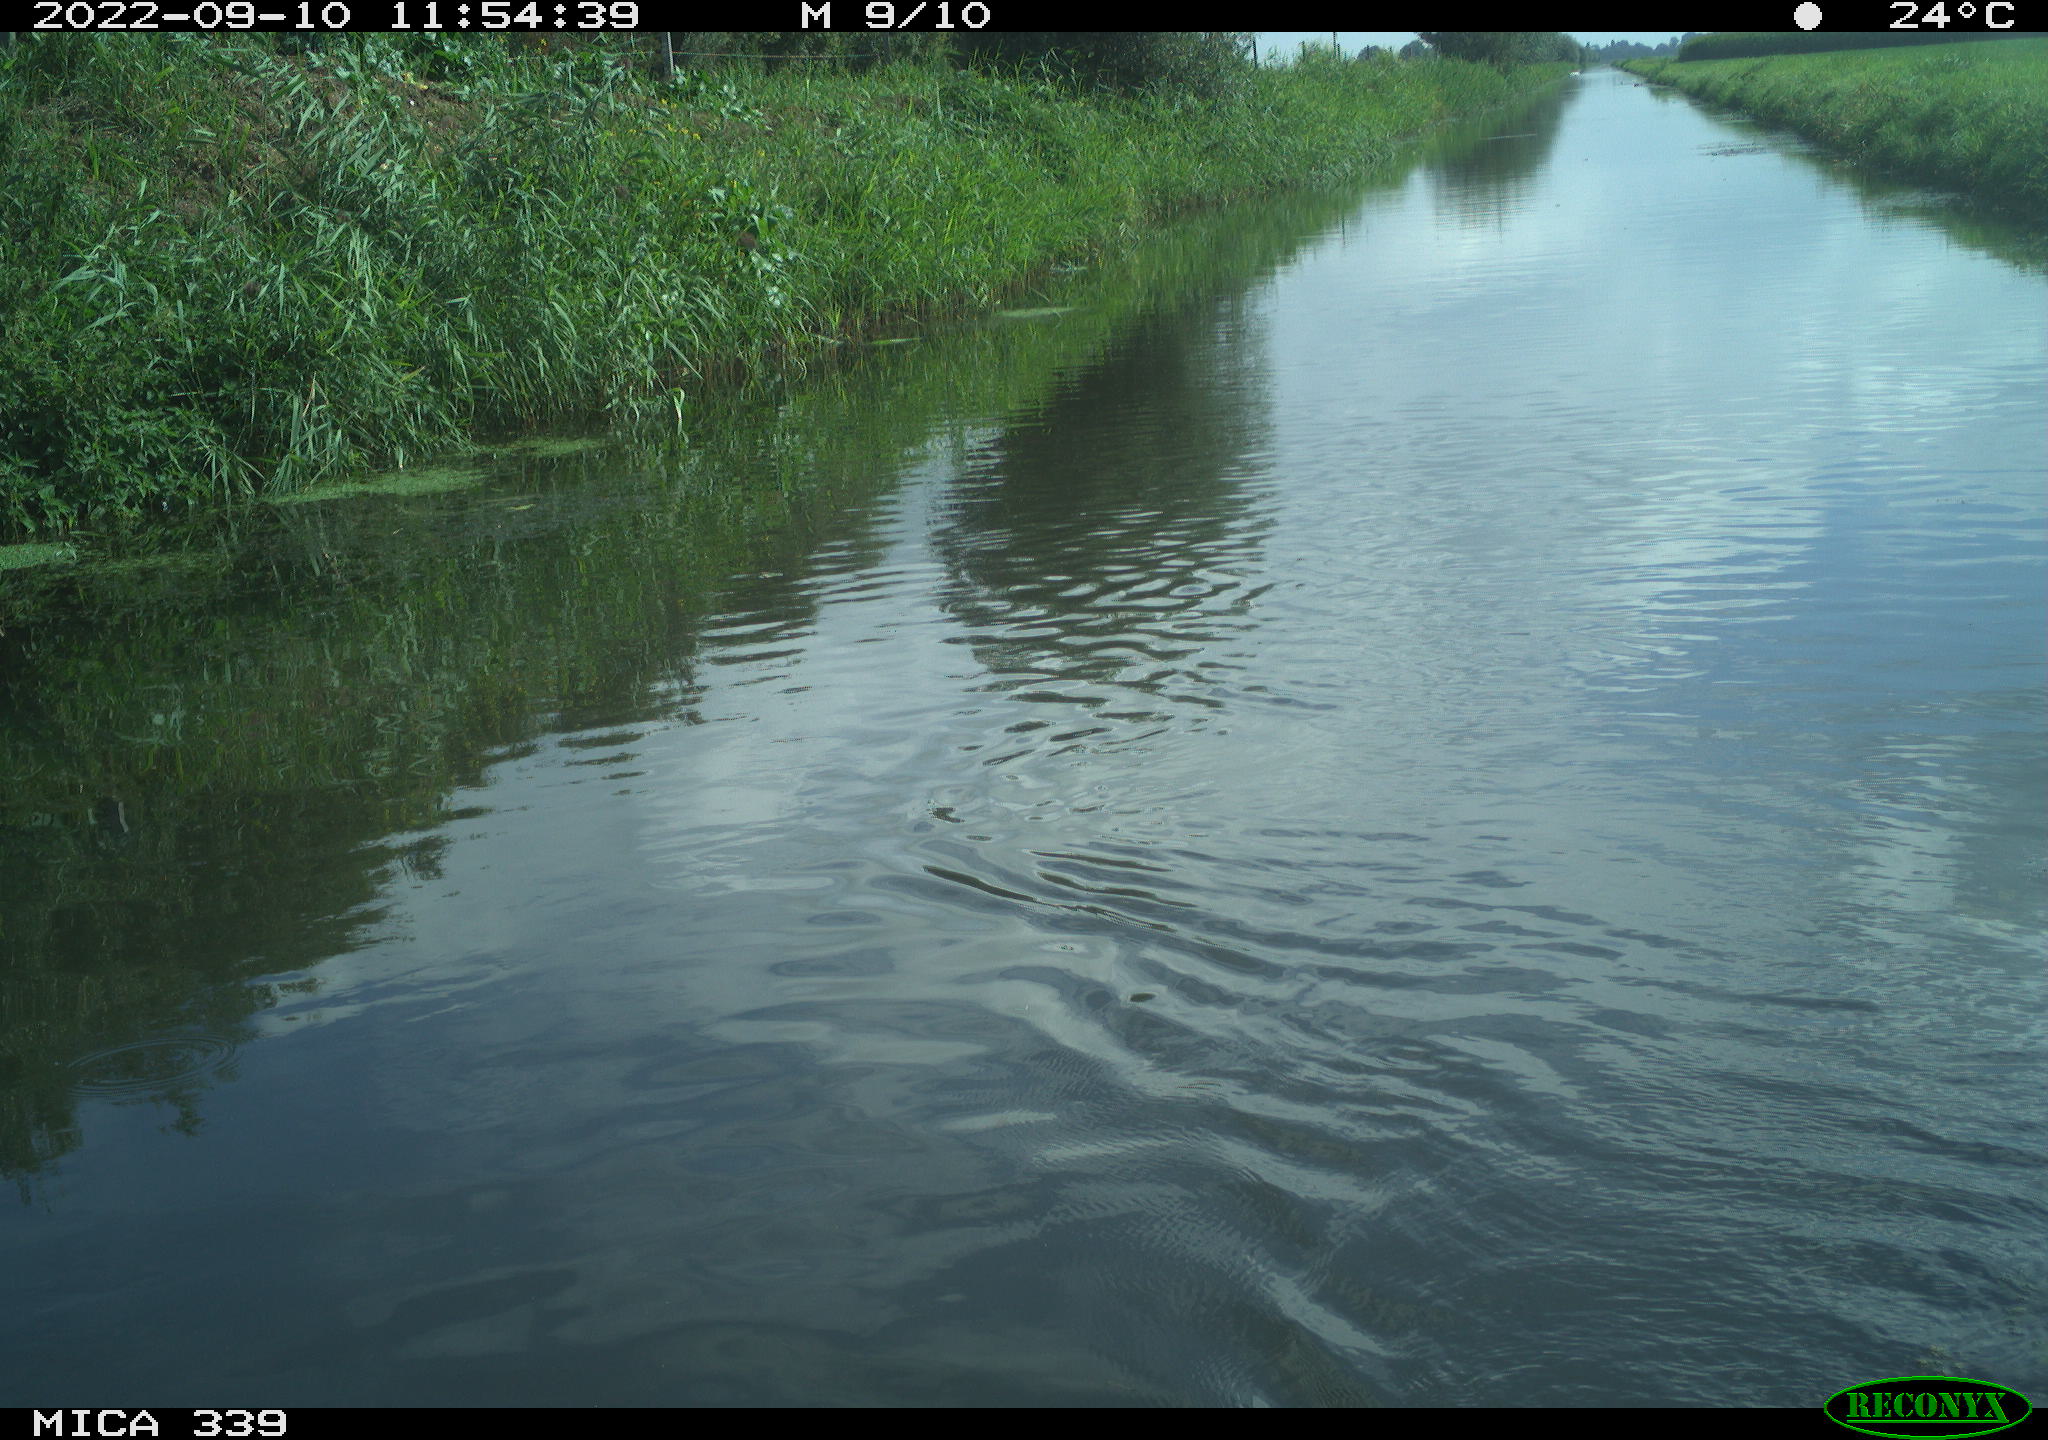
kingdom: Animalia
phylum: Chordata
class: Aves
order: Gruiformes
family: Rallidae
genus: Fulica
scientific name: Fulica atra
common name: Eurasian coot
